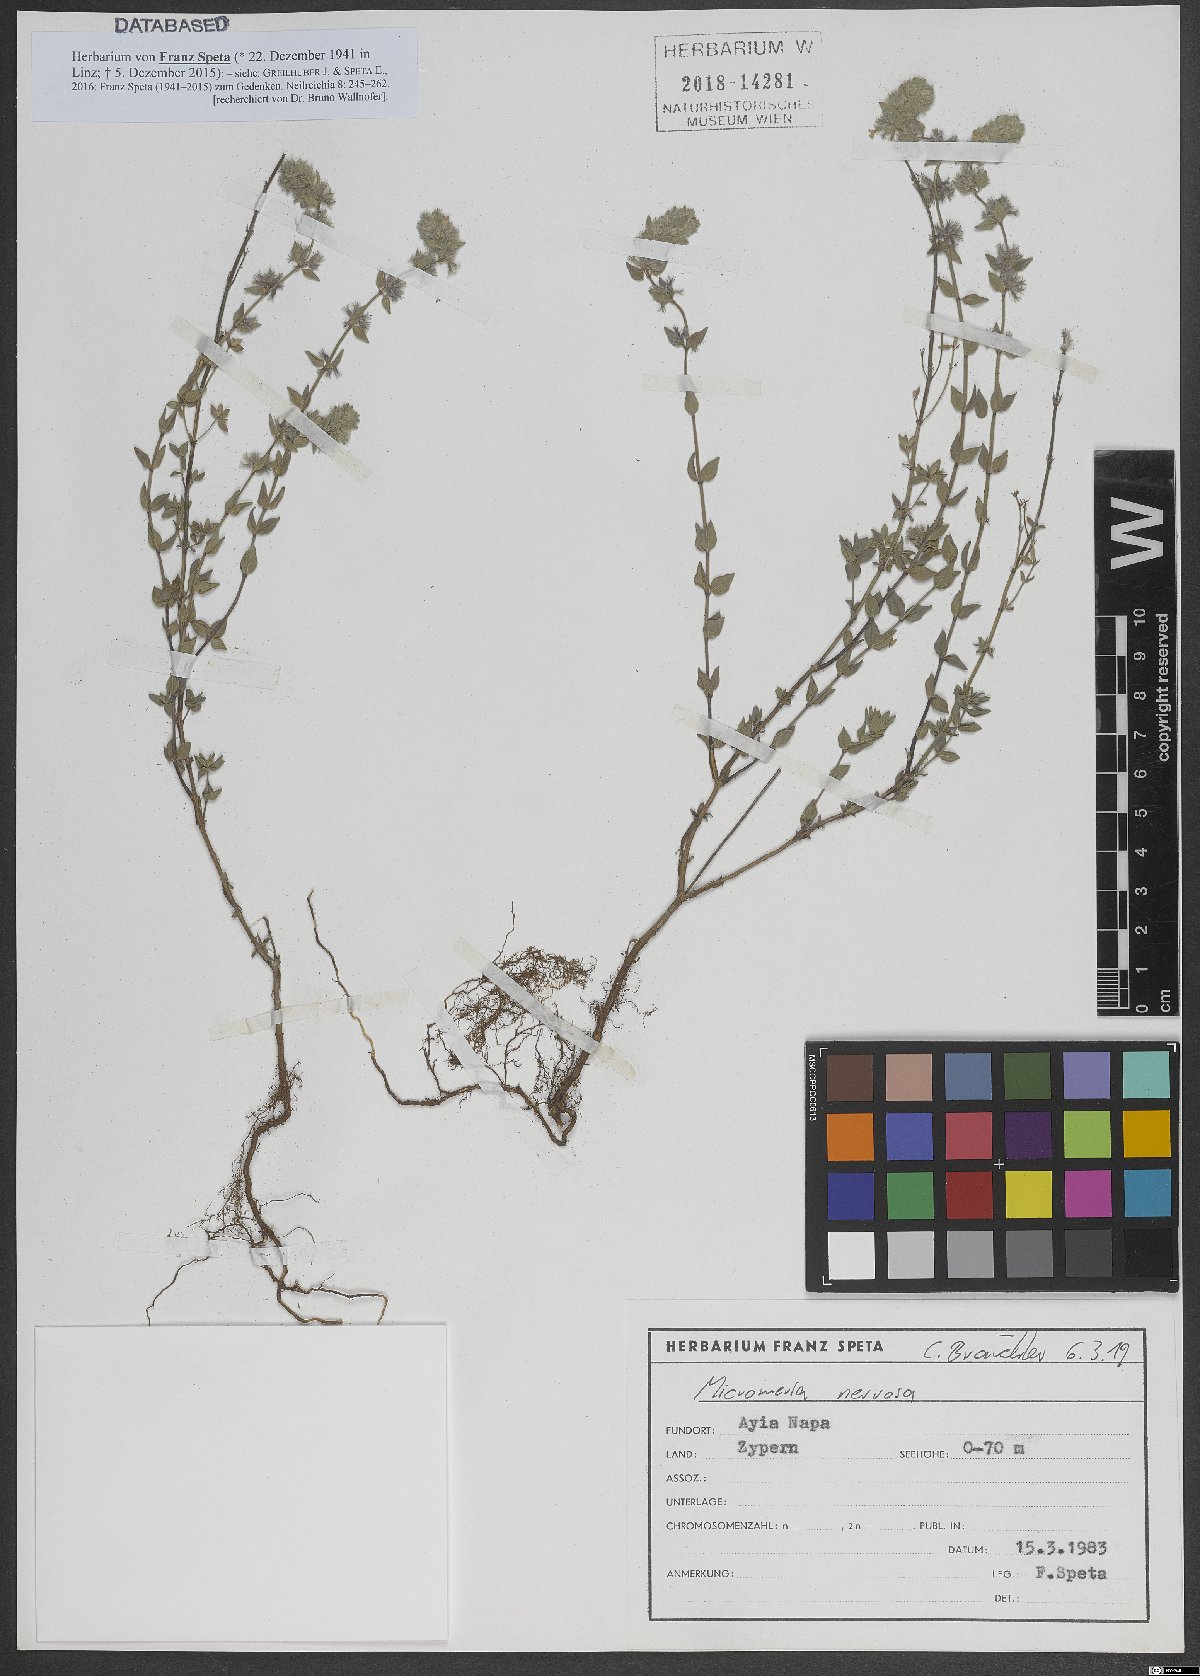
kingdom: Plantae
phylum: Tracheophyta
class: Magnoliopsida
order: Lamiales
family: Lamiaceae
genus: Micromeria
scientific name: Micromeria nervosa
